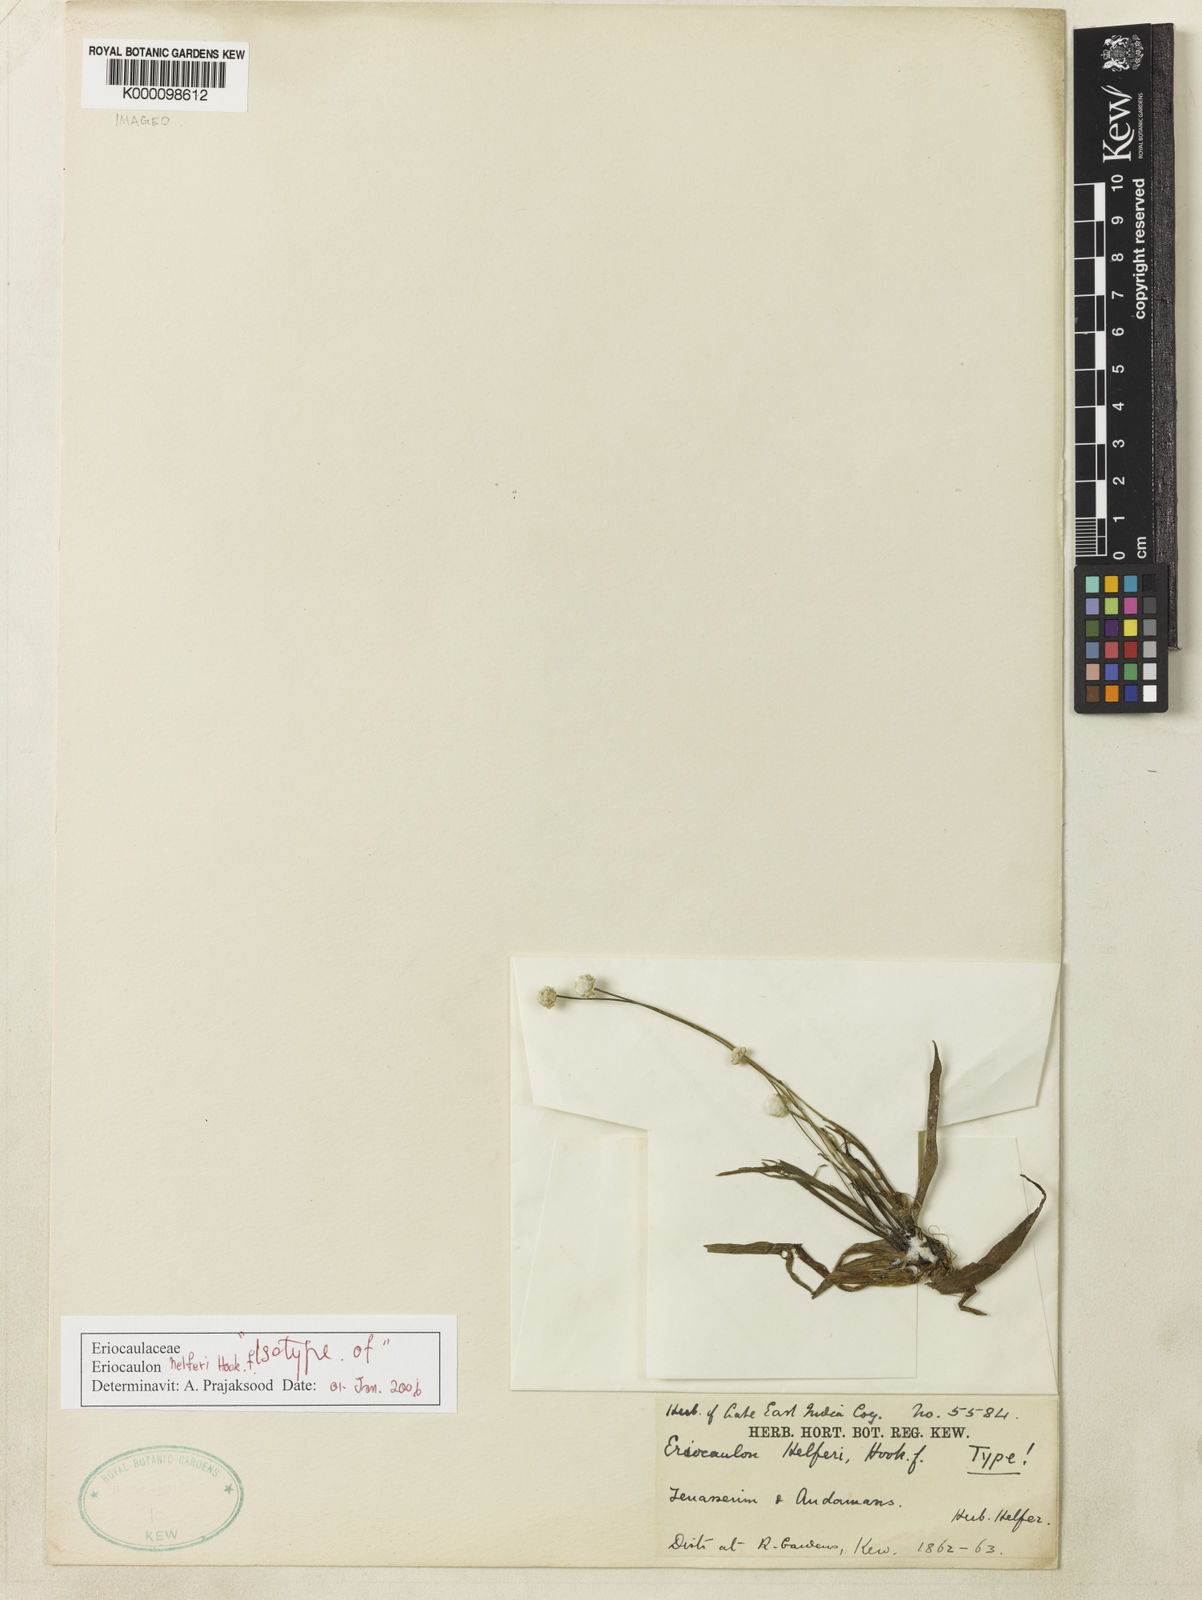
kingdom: Plantae
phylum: Tracheophyta
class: Liliopsida
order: Poales
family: Eriocaulaceae
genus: Eriocaulon
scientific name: Eriocaulon wightianum
